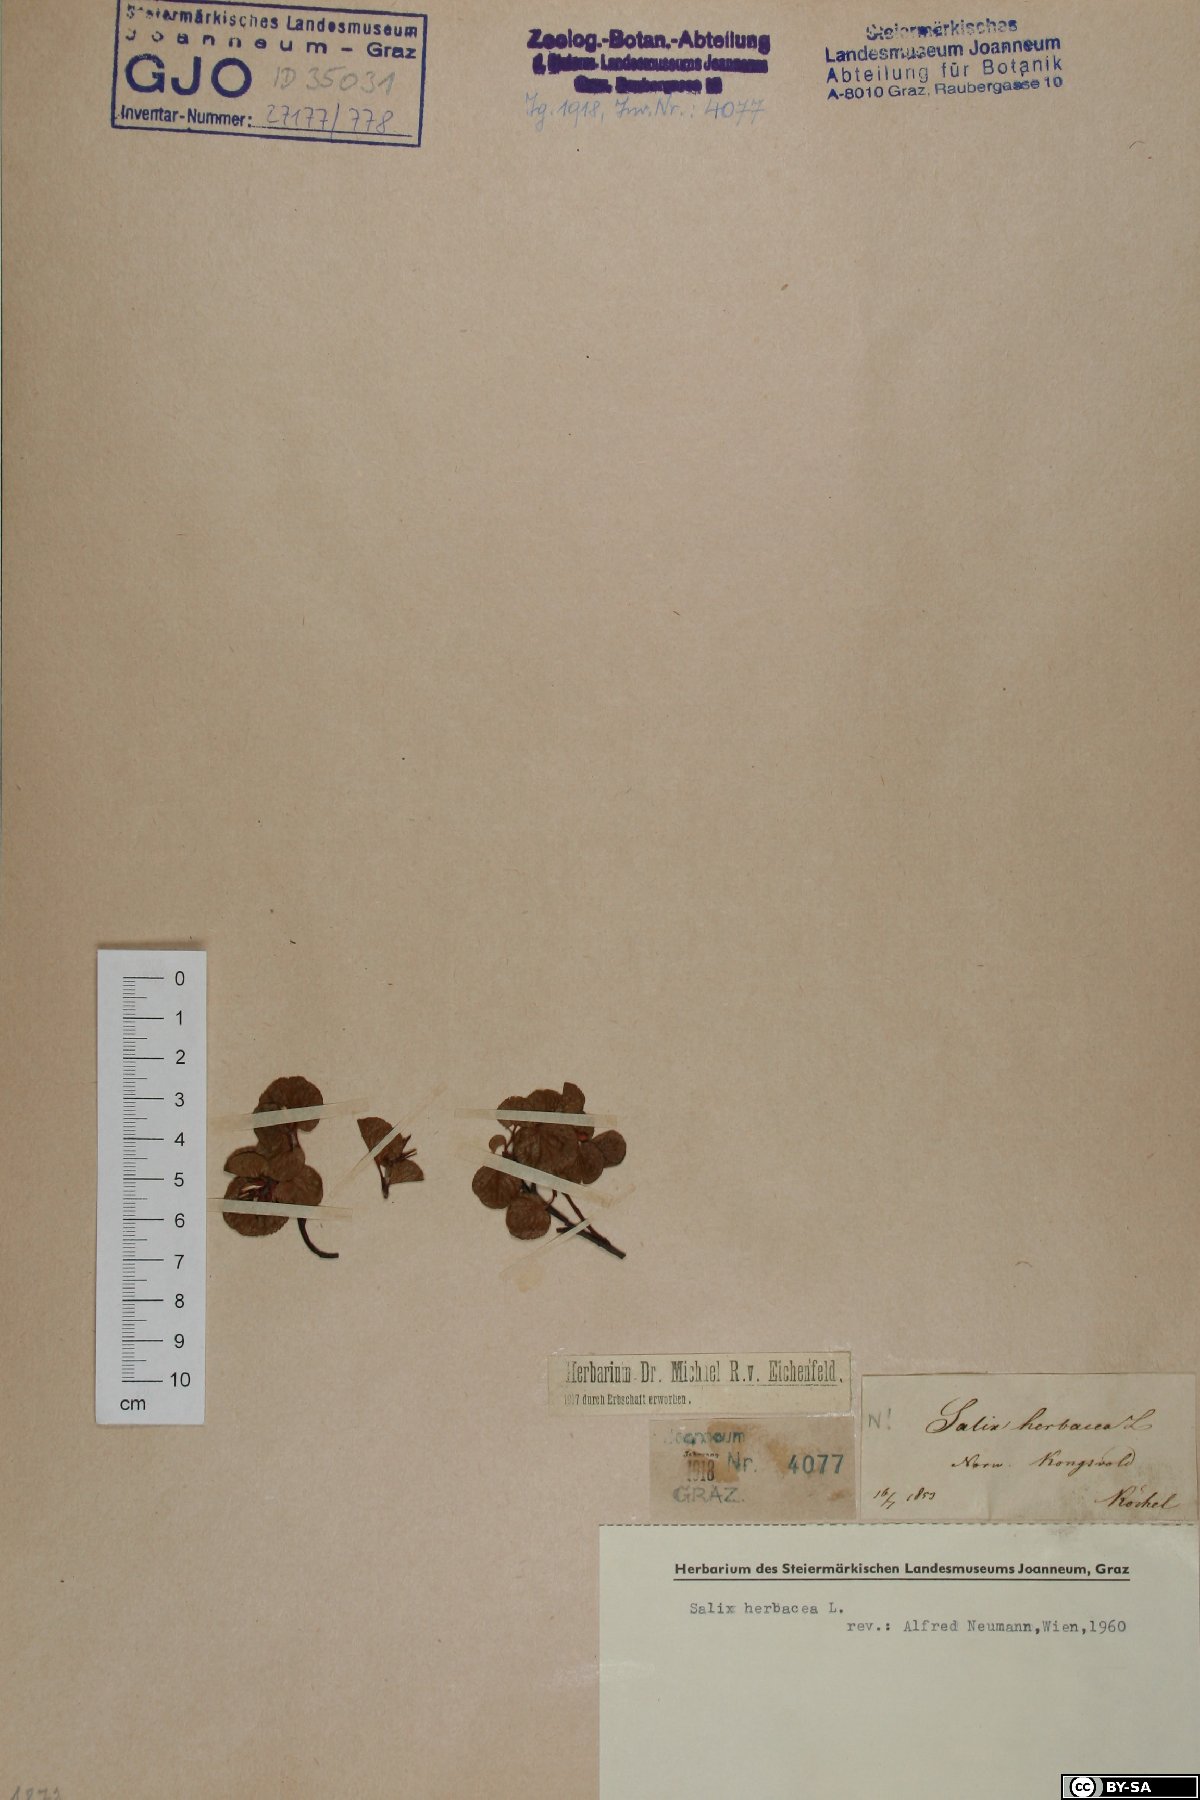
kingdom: Plantae
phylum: Tracheophyta
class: Magnoliopsida
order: Malpighiales
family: Salicaceae
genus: Salix
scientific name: Salix herbacea
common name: Dwarf willow
